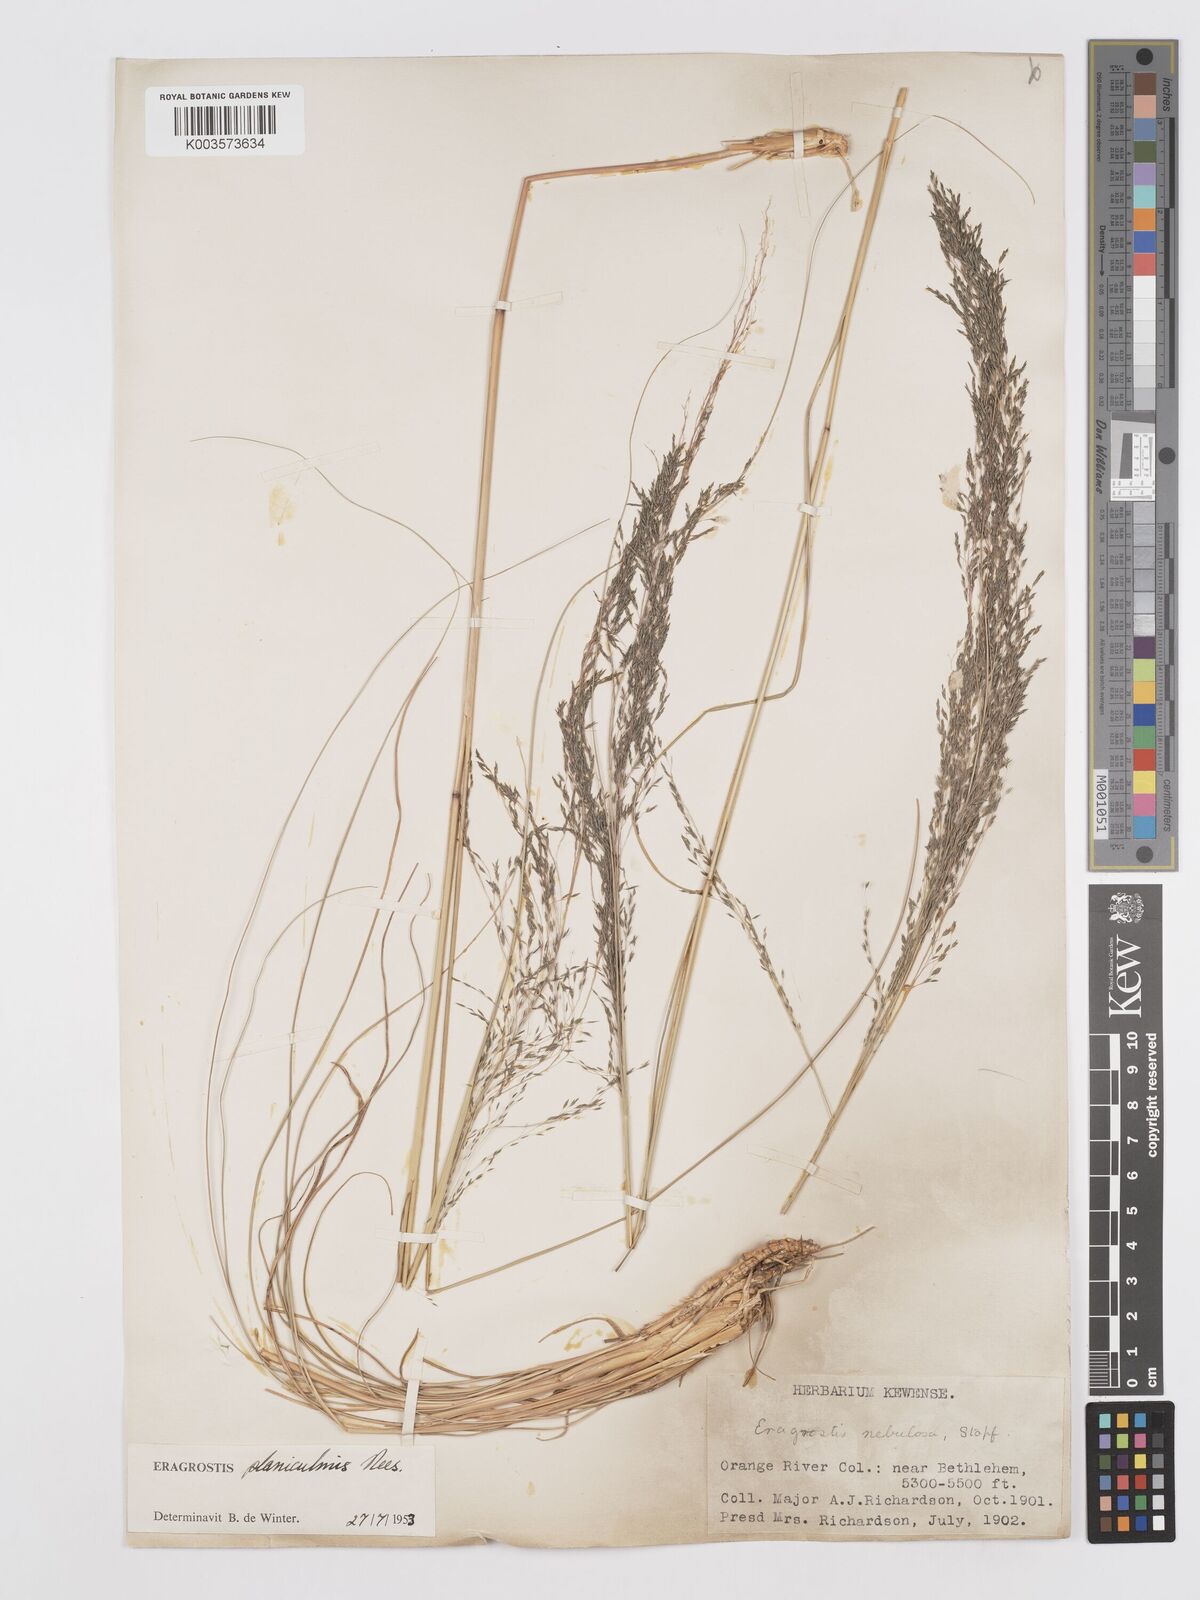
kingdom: Plantae
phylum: Tracheophyta
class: Liliopsida
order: Poales
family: Poaceae
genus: Eragrostis
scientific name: Eragrostis planiculmis
